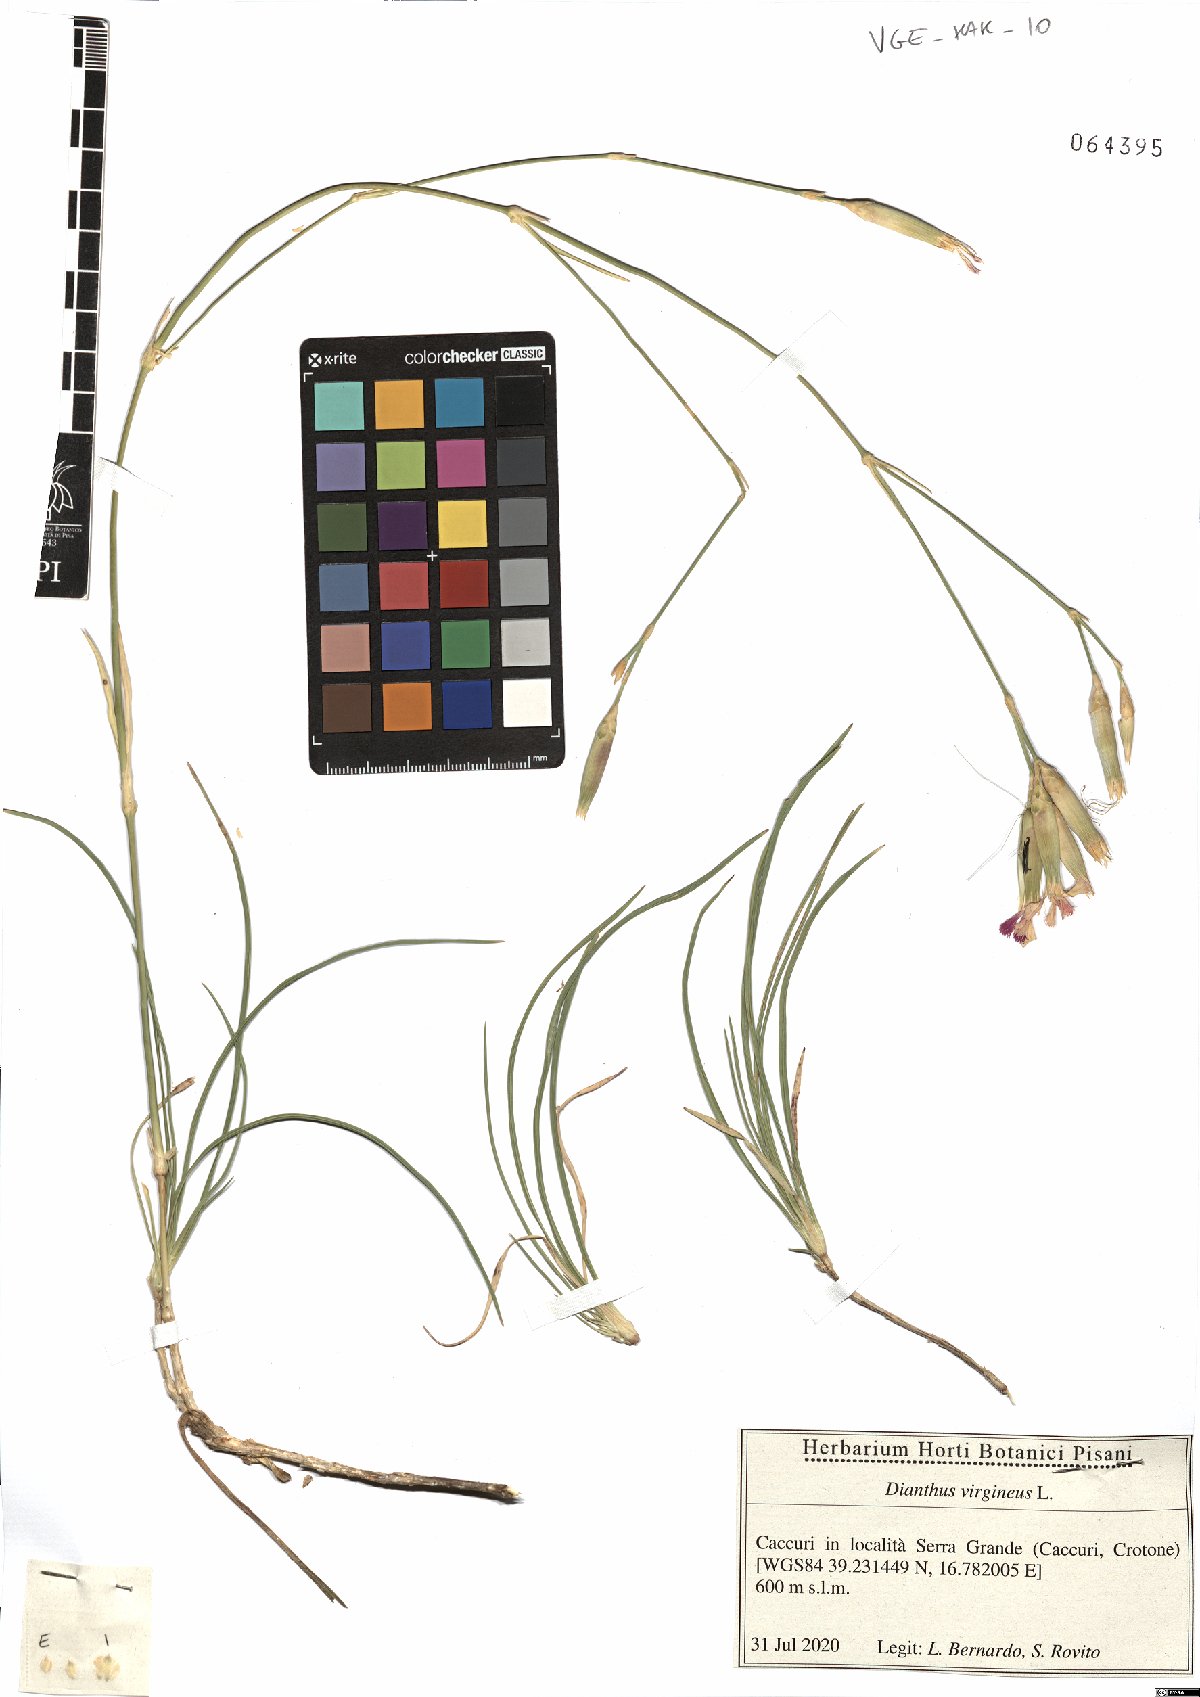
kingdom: Plantae
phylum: Tracheophyta
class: Magnoliopsida
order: Caryophyllales
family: Caryophyllaceae
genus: Dianthus
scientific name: Dianthus virgineus
